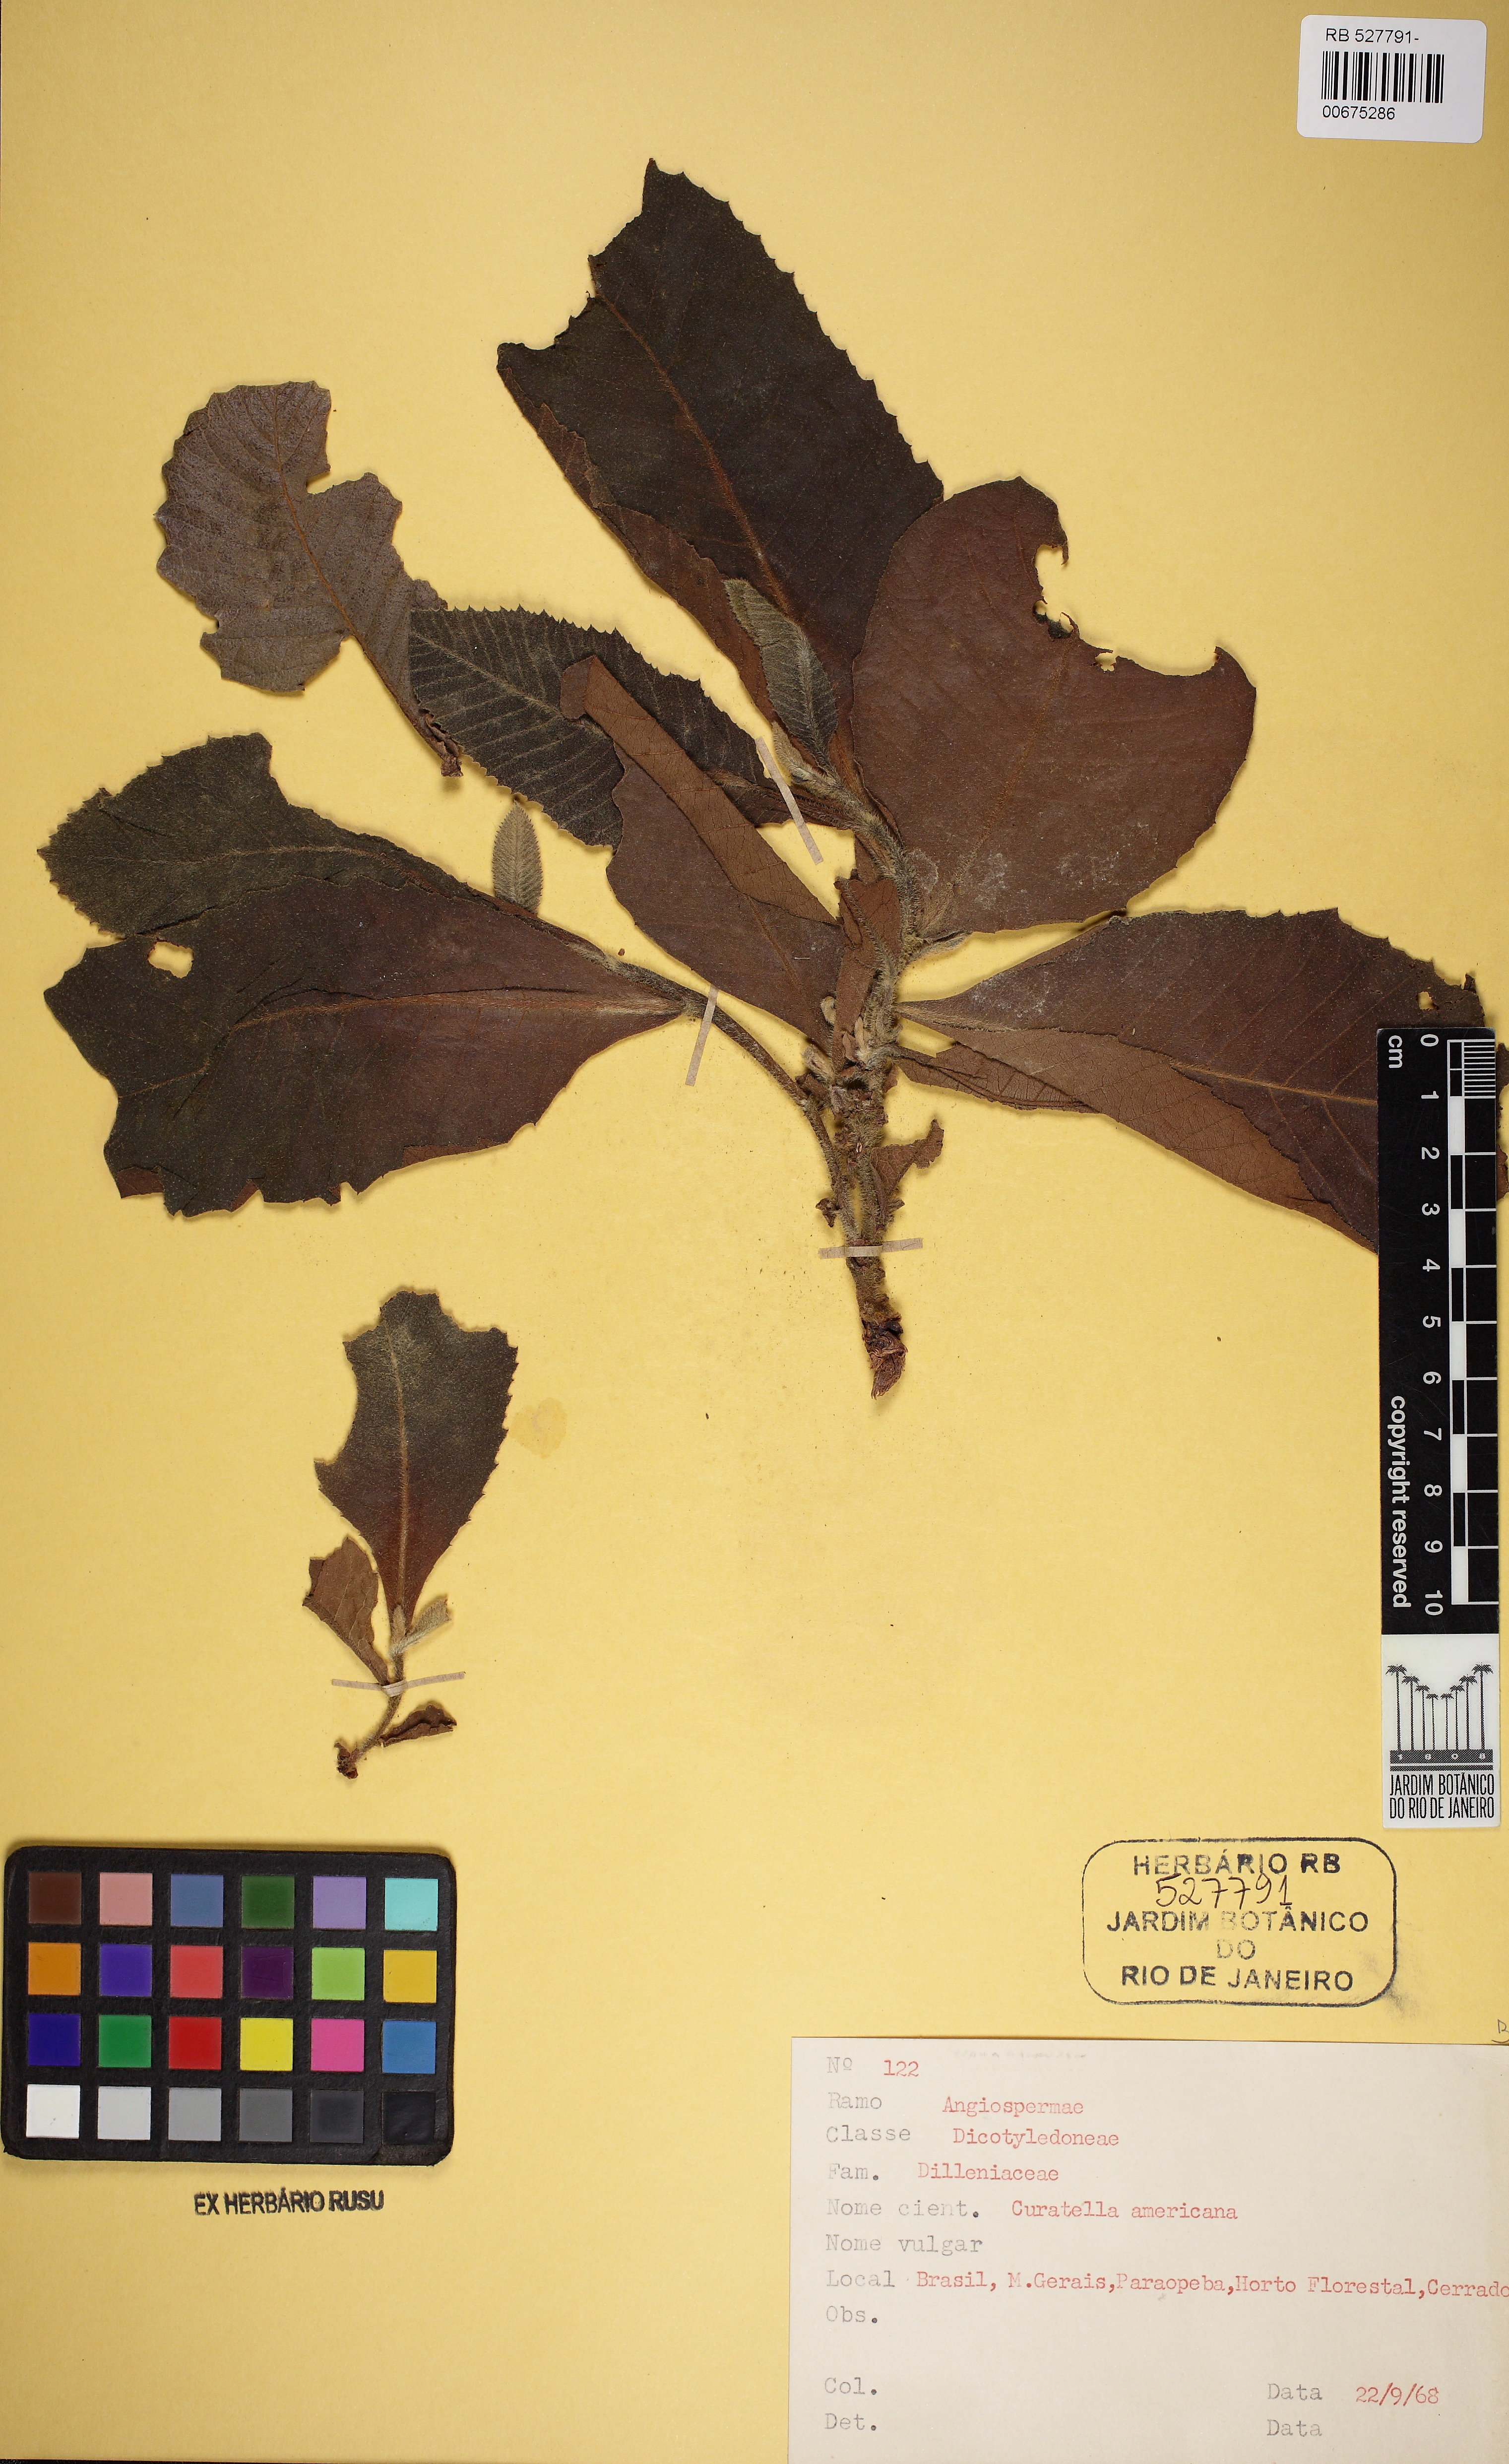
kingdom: Plantae
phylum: Tracheophyta
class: Magnoliopsida
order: Dilleniales
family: Dilleniaceae
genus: Curatella
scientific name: Curatella americana
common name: Sandpaper tree
